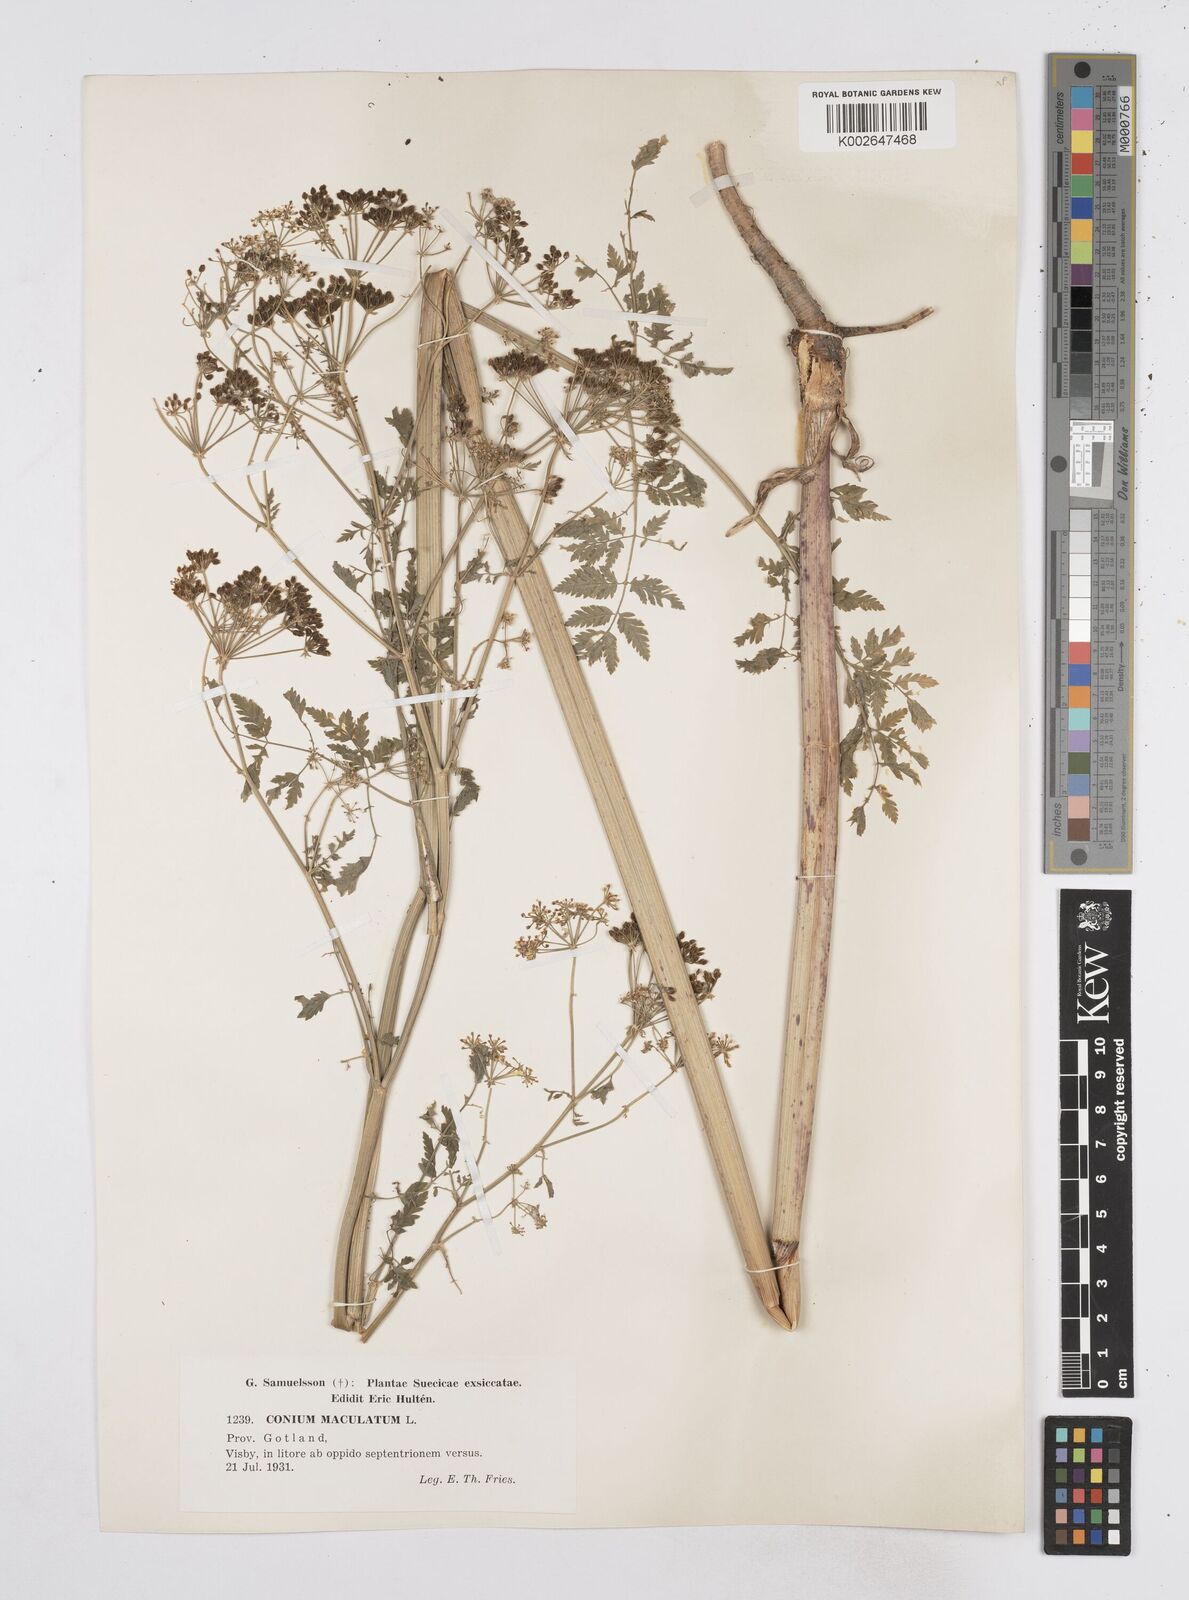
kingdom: Plantae
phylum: Tracheophyta
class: Magnoliopsida
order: Apiales
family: Apiaceae
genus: Conium
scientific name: Conium maculatum
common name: Hemlock
